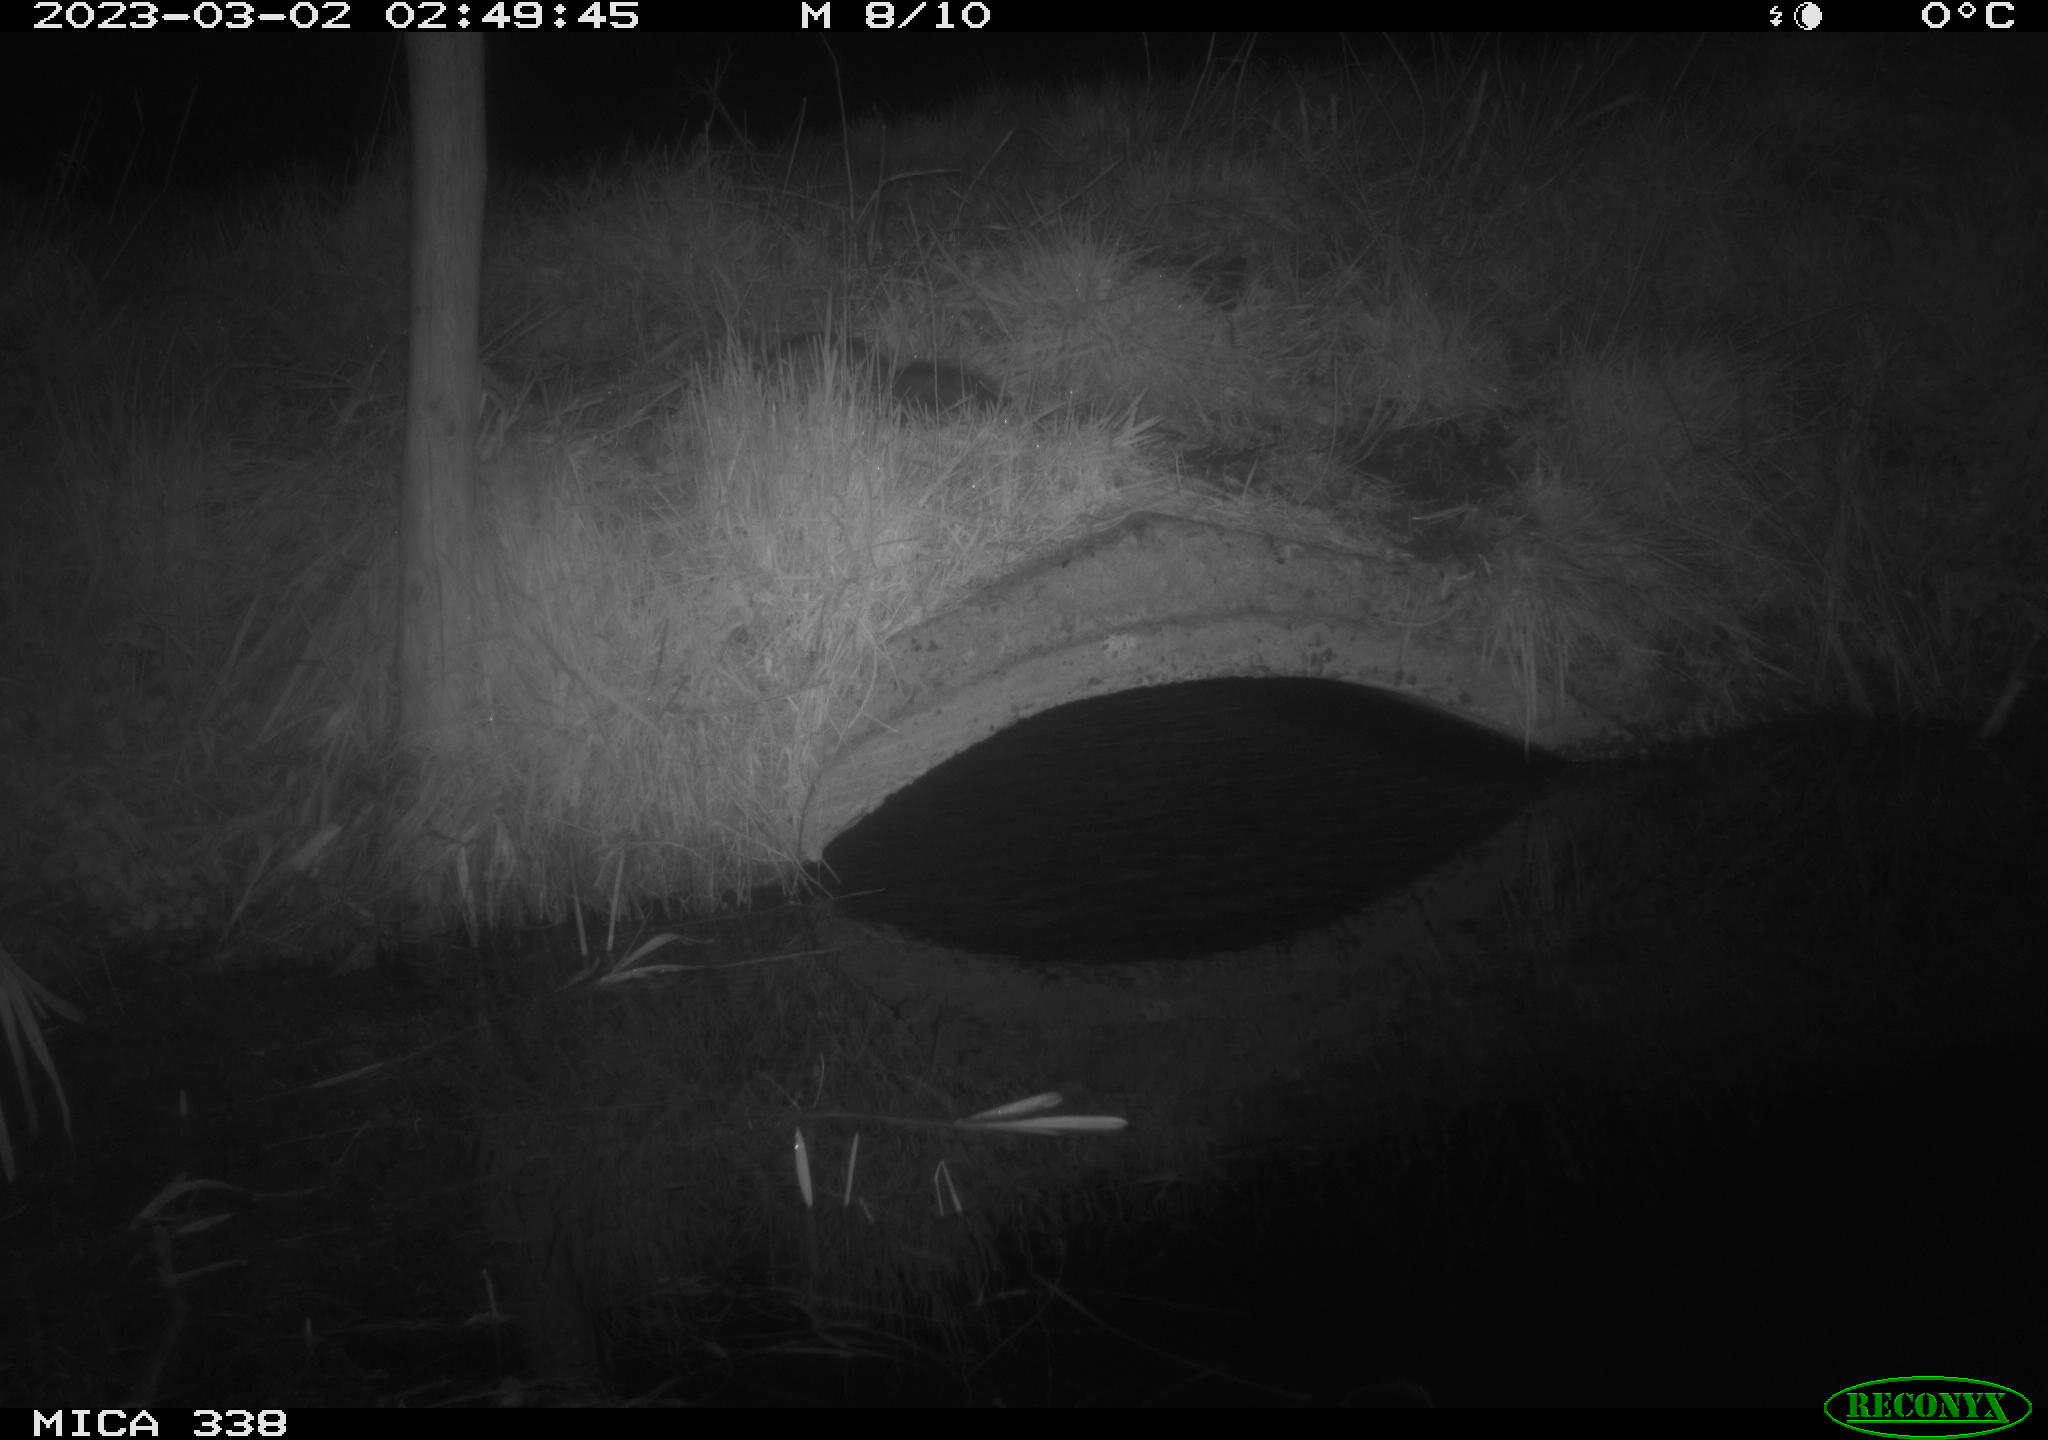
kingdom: Animalia
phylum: Chordata
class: Mammalia
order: Carnivora
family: Mustelidae
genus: Mustela
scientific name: Mustela putorius
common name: European polecat
